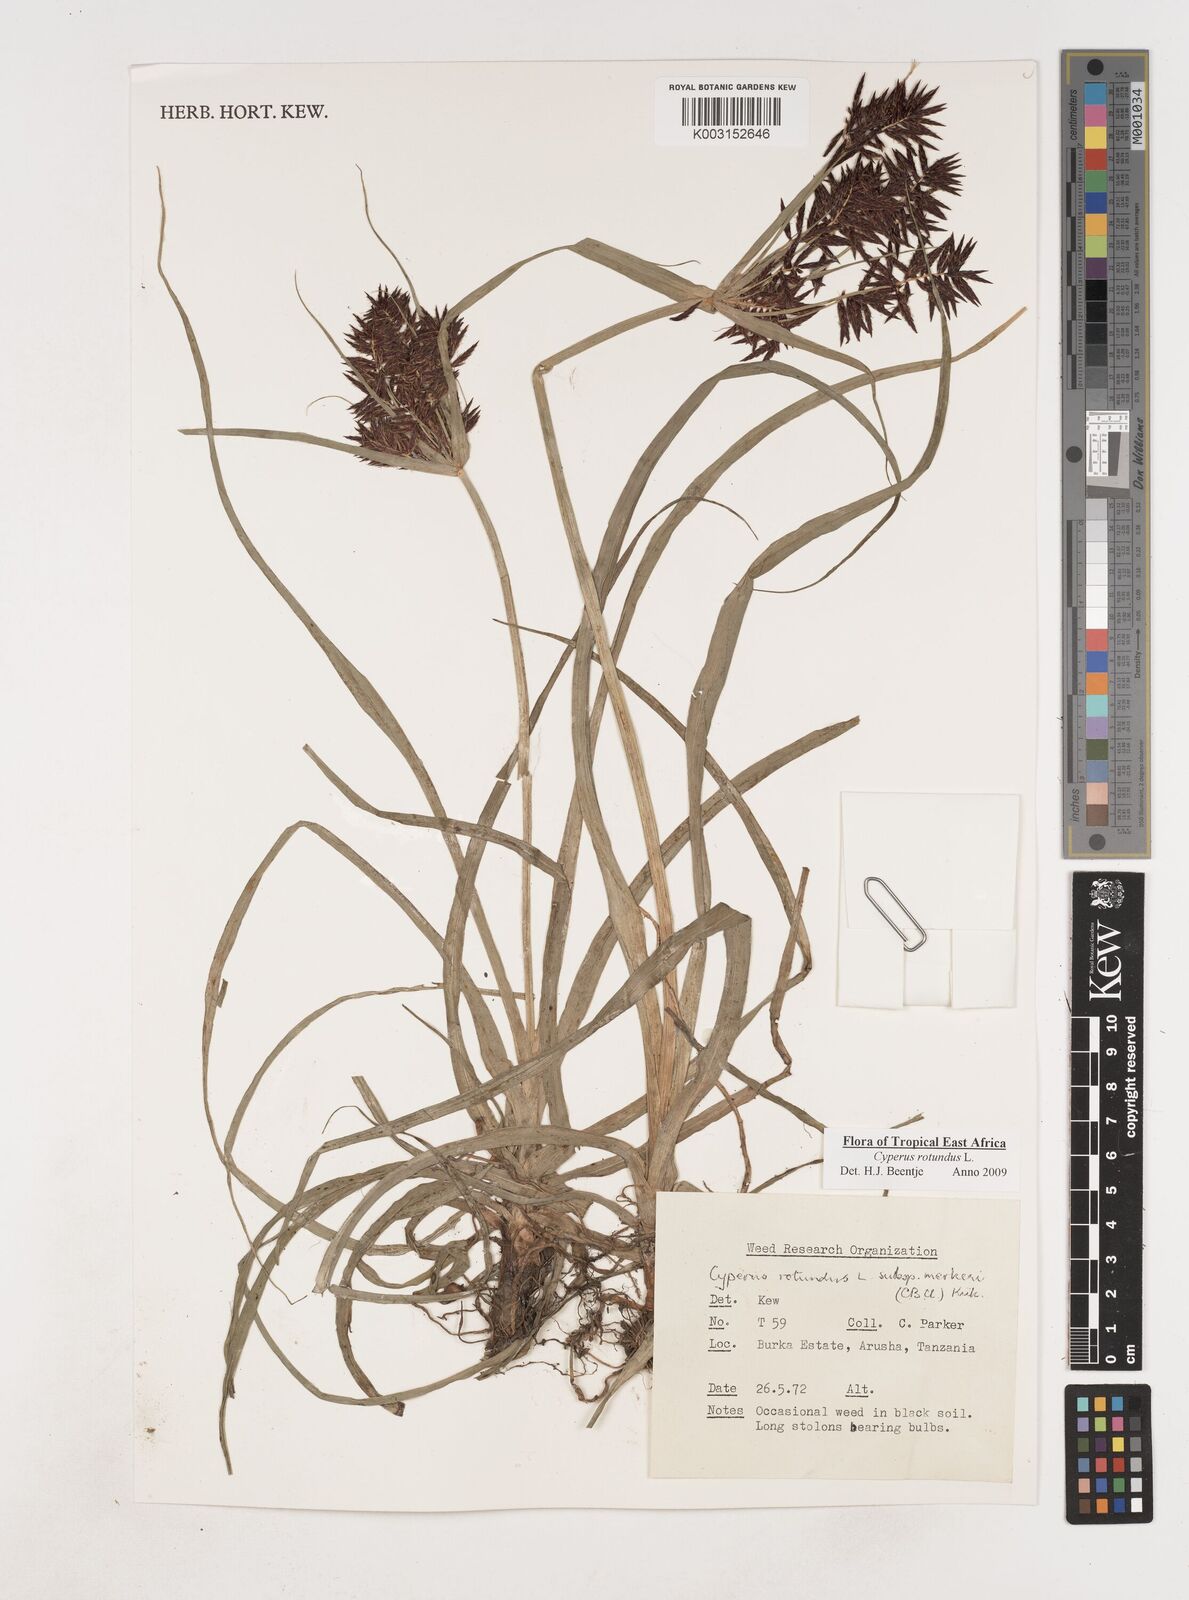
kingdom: Plantae
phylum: Tracheophyta
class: Liliopsida
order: Poales
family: Cyperaceae
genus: Cyperus
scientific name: Cyperus rotundus
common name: Nutgrass
